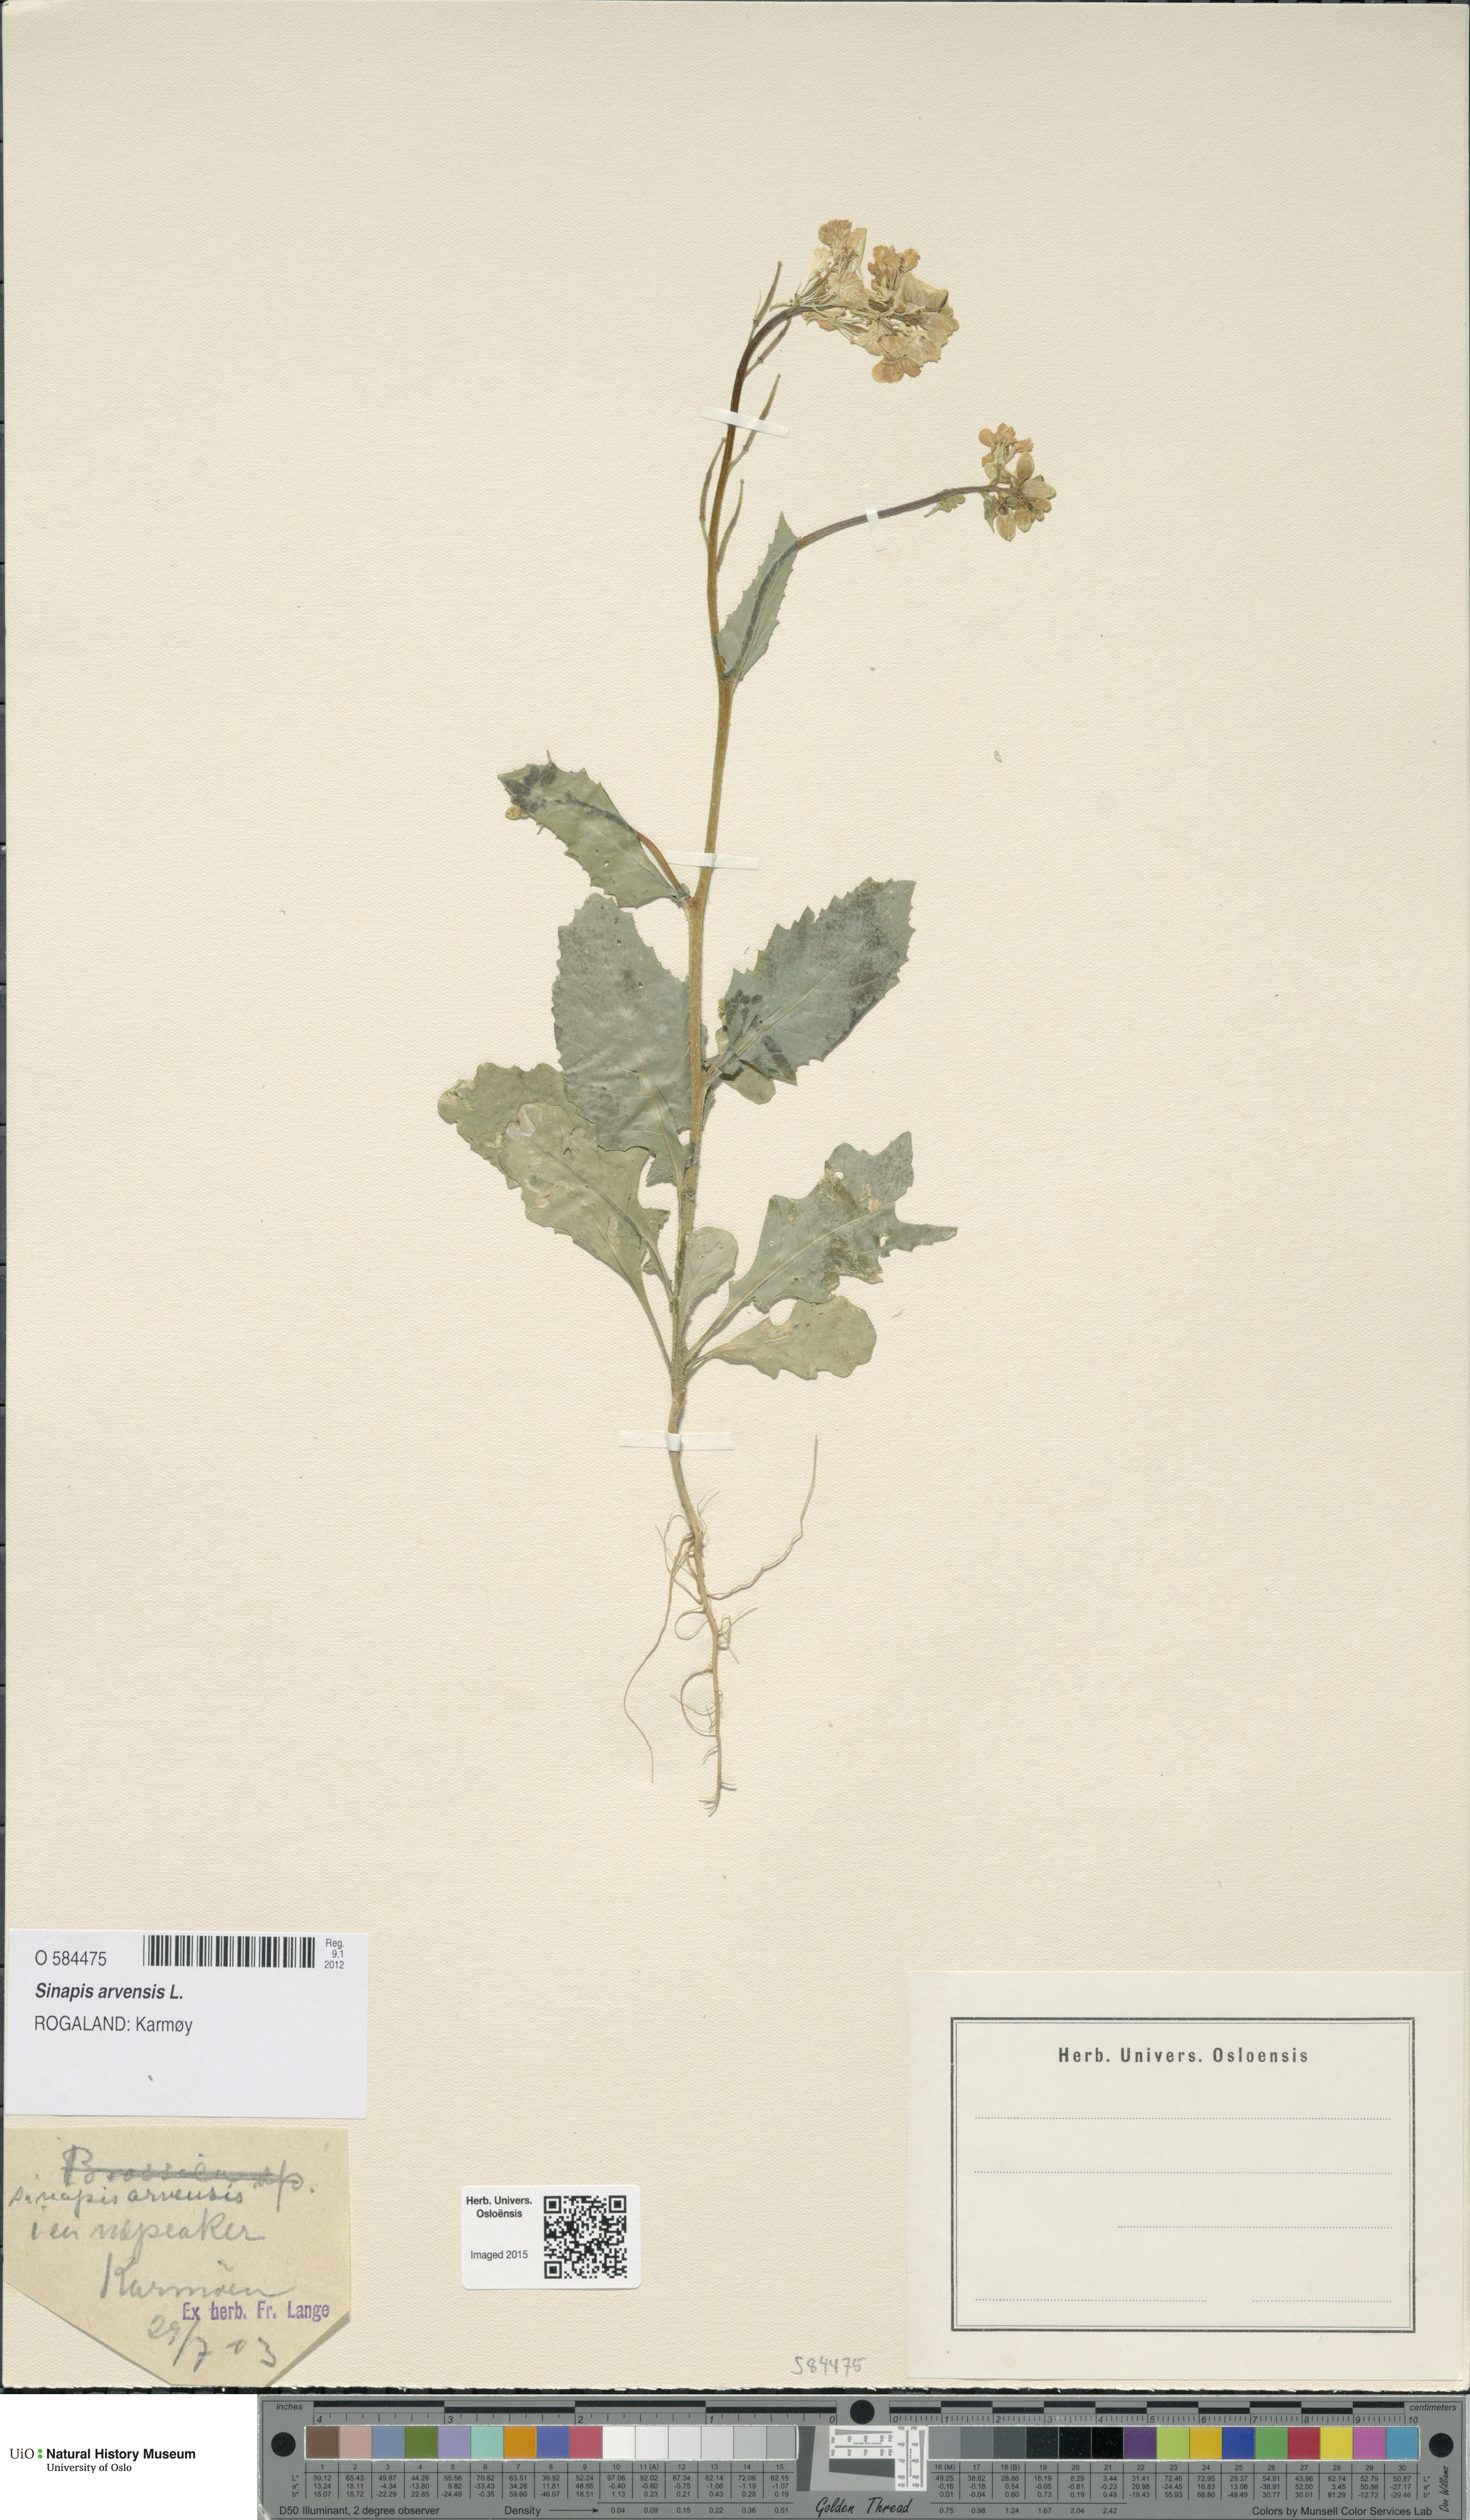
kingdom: Plantae
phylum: Tracheophyta
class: Magnoliopsida
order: Brassicales
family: Brassicaceae
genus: Sinapis
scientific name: Sinapis arvensis
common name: Charlock
